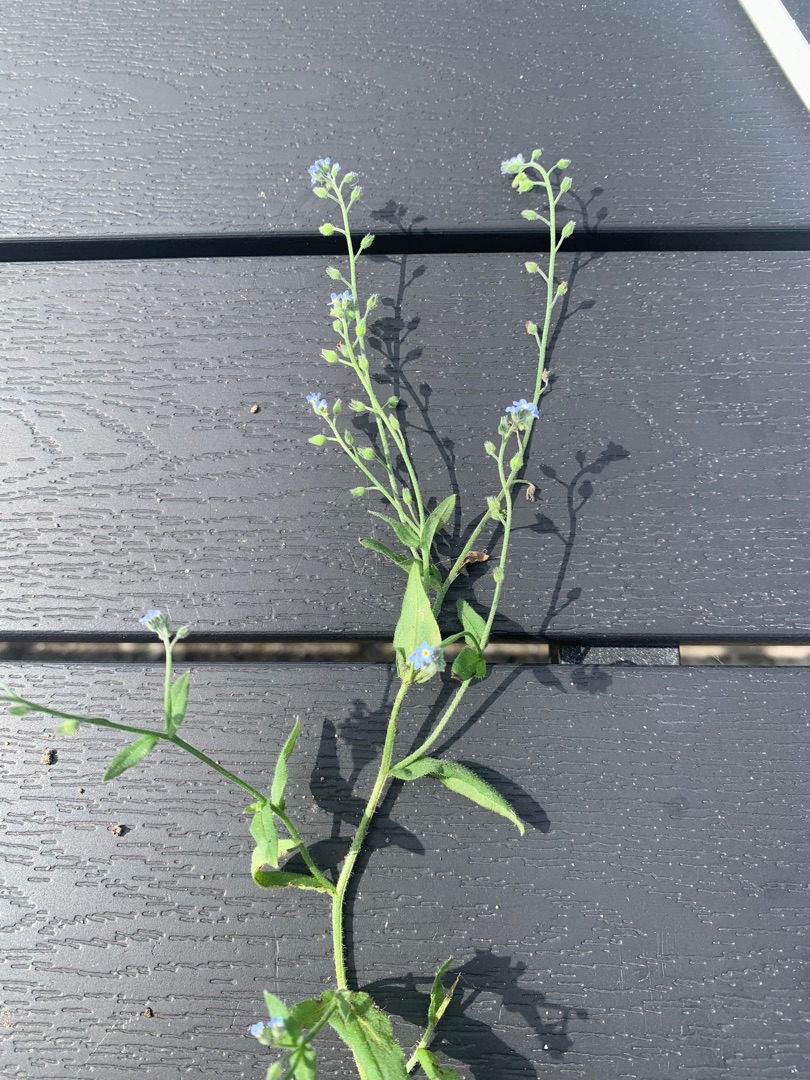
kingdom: Plantae
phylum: Tracheophyta
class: Magnoliopsida
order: Boraginales
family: Boraginaceae
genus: Myosotis
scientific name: Myosotis arvensis
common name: Mark-forglemmigej
